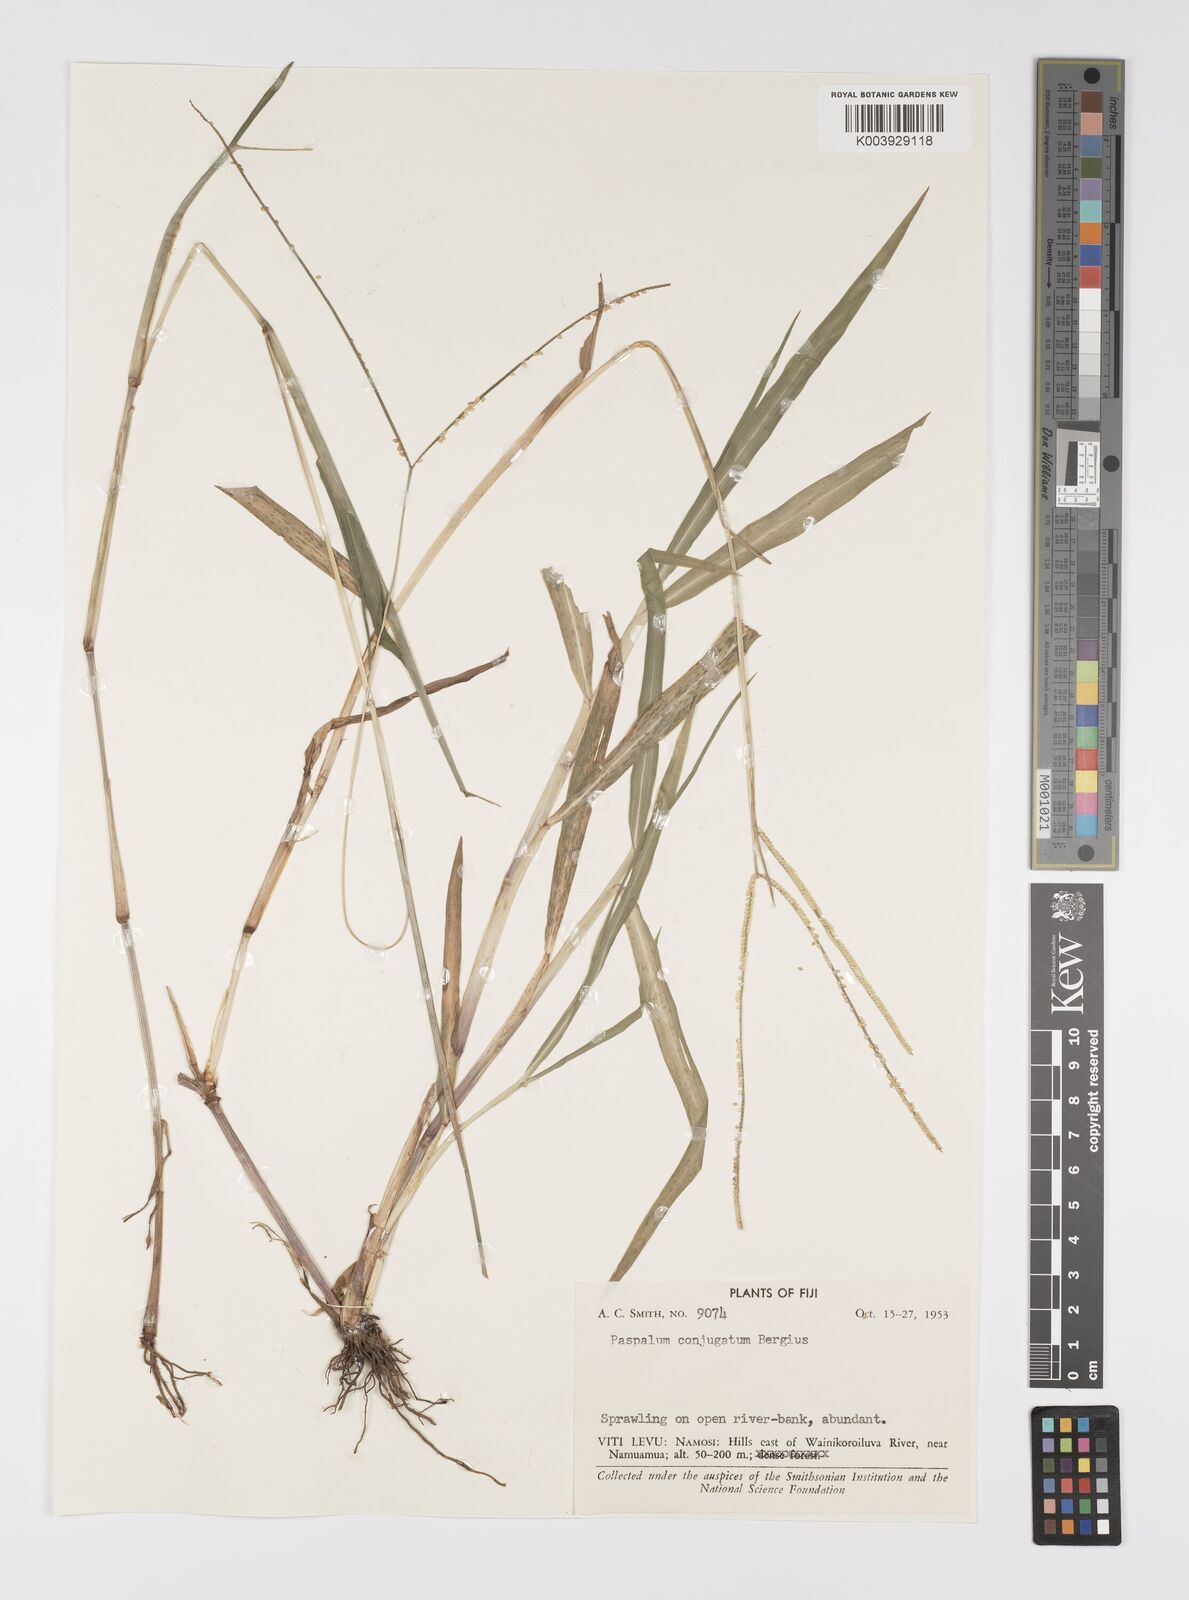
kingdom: Plantae
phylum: Tracheophyta
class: Liliopsida
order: Poales
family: Poaceae
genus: Paspalum
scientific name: Paspalum conjugatum
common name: Hilograss
